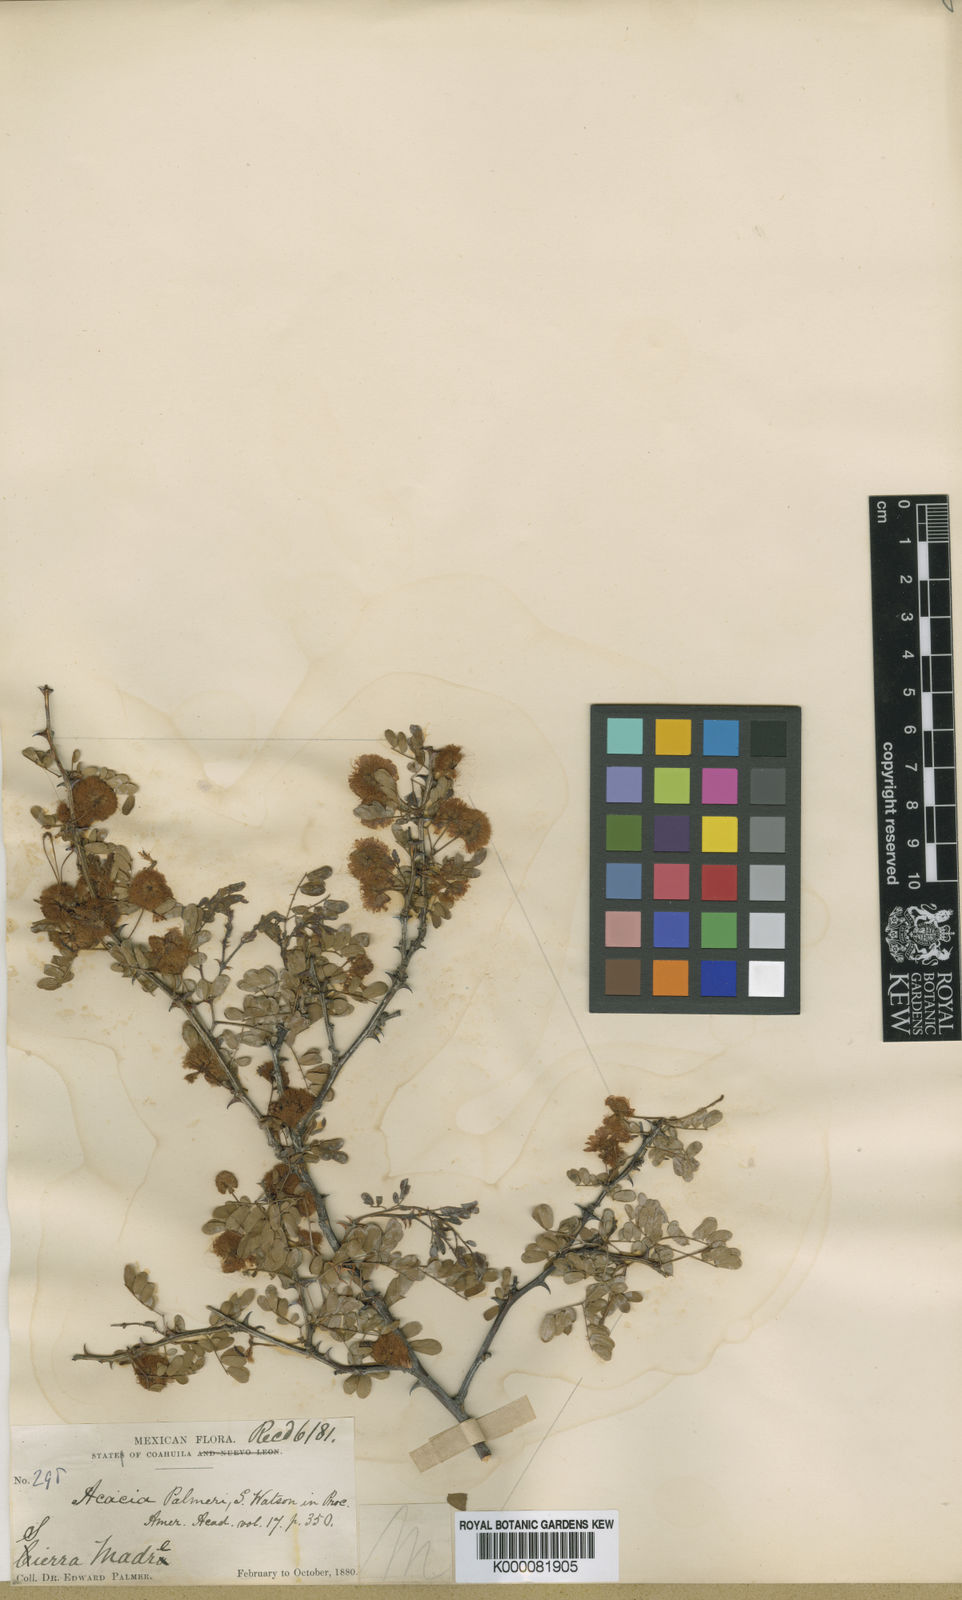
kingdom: Plantae
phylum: Tracheophyta
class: Magnoliopsida
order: Fabales
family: Fabaceae
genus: Acacia
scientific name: Acacia
